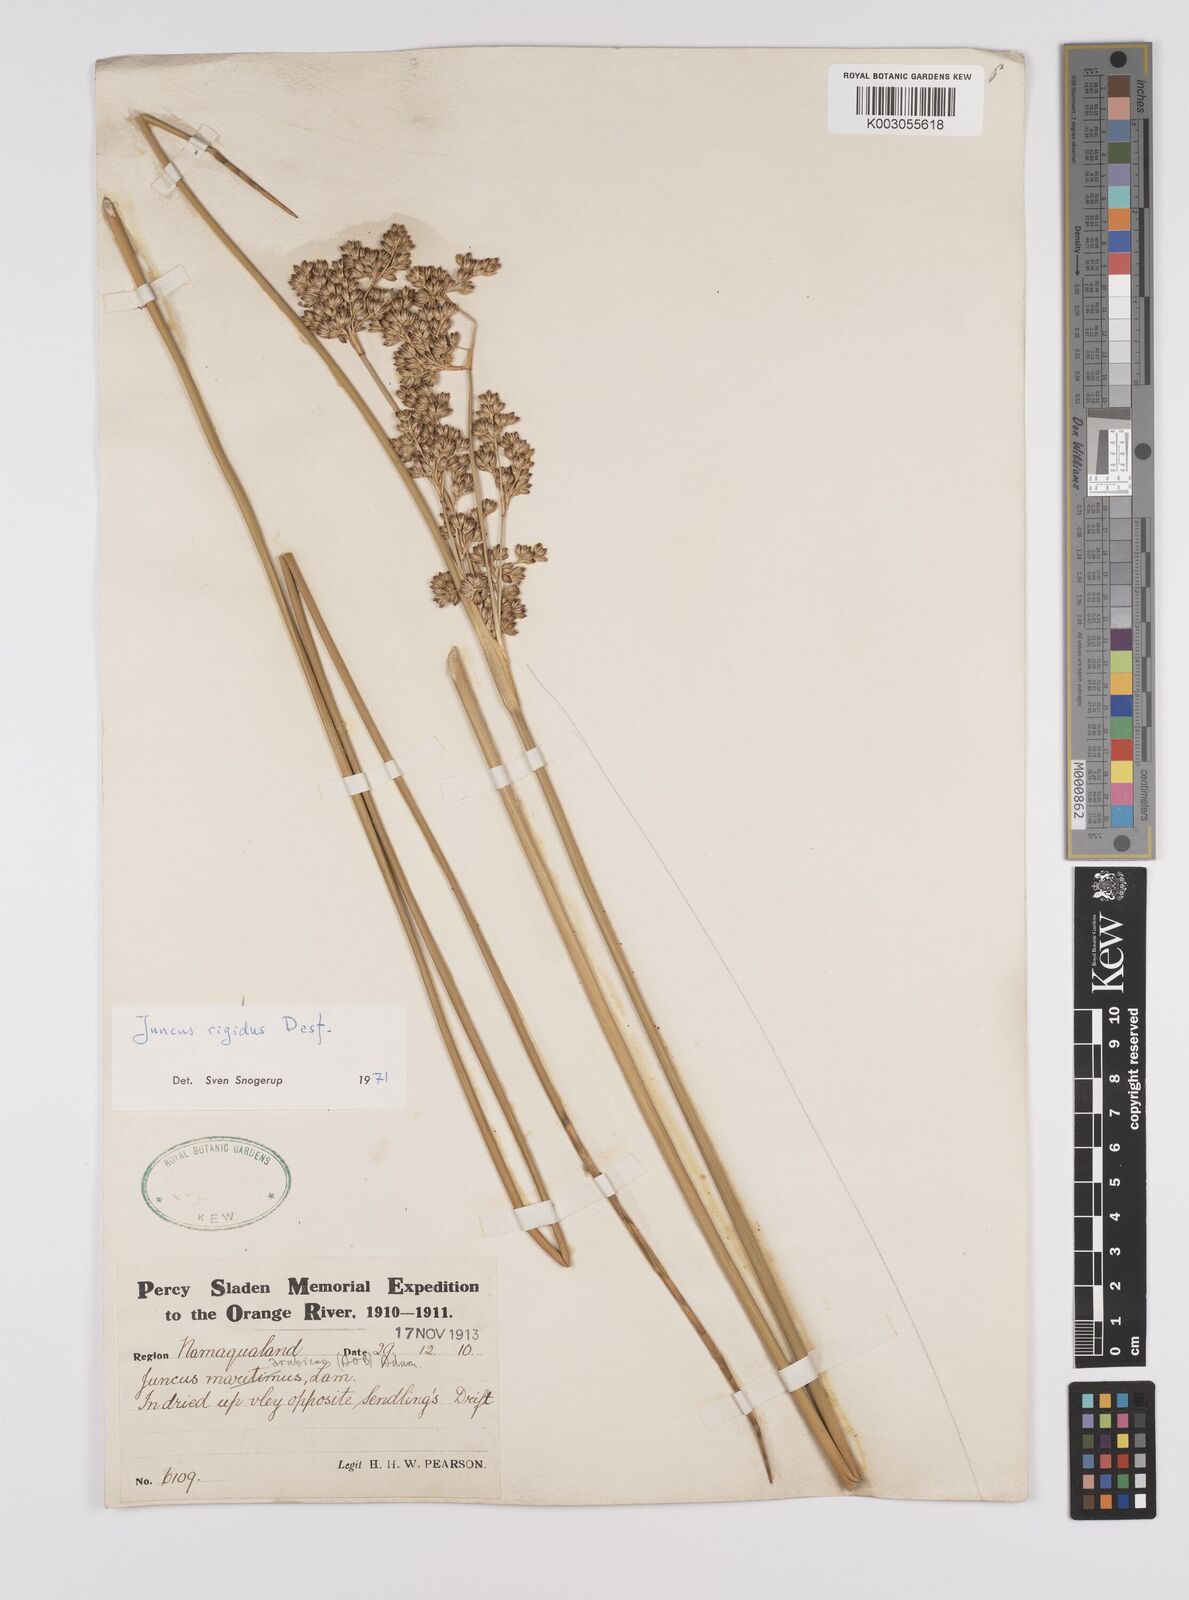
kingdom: Plantae
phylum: Tracheophyta
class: Liliopsida
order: Poales
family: Juncaceae
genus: Juncus
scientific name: Juncus rigidus
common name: Hard sea rush
